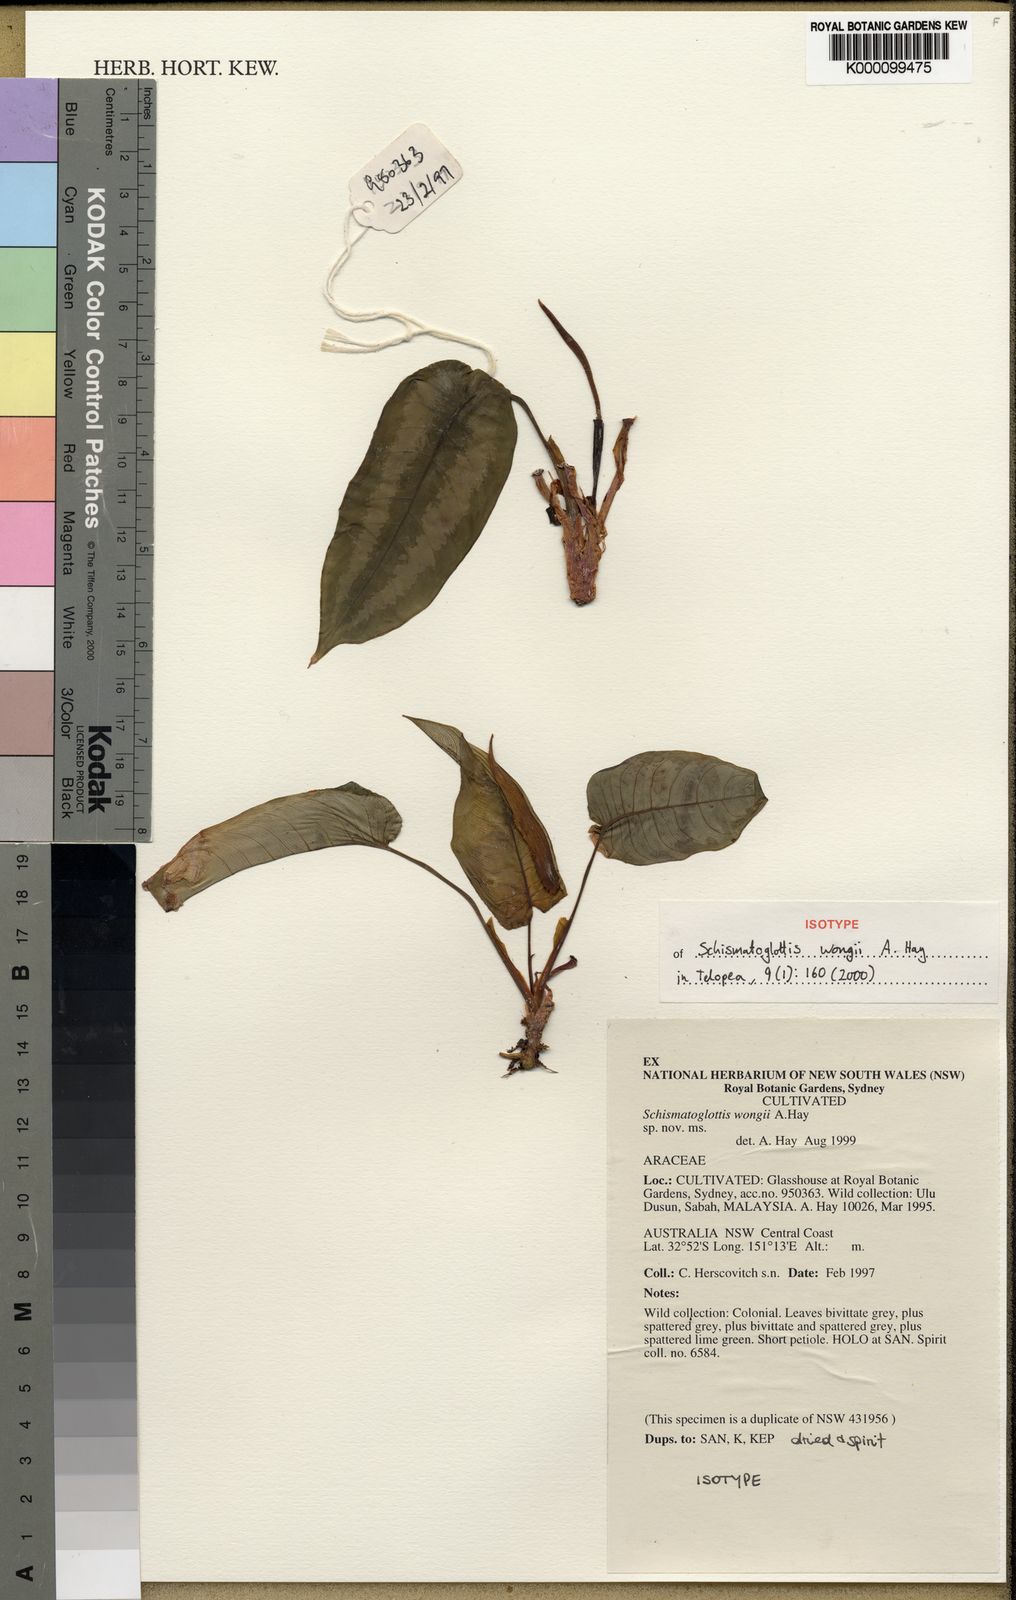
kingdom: Plantae
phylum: Tracheophyta
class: Liliopsida
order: Alismatales
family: Araceae
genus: Schismatoglottis
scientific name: Schismatoglottis wongii
